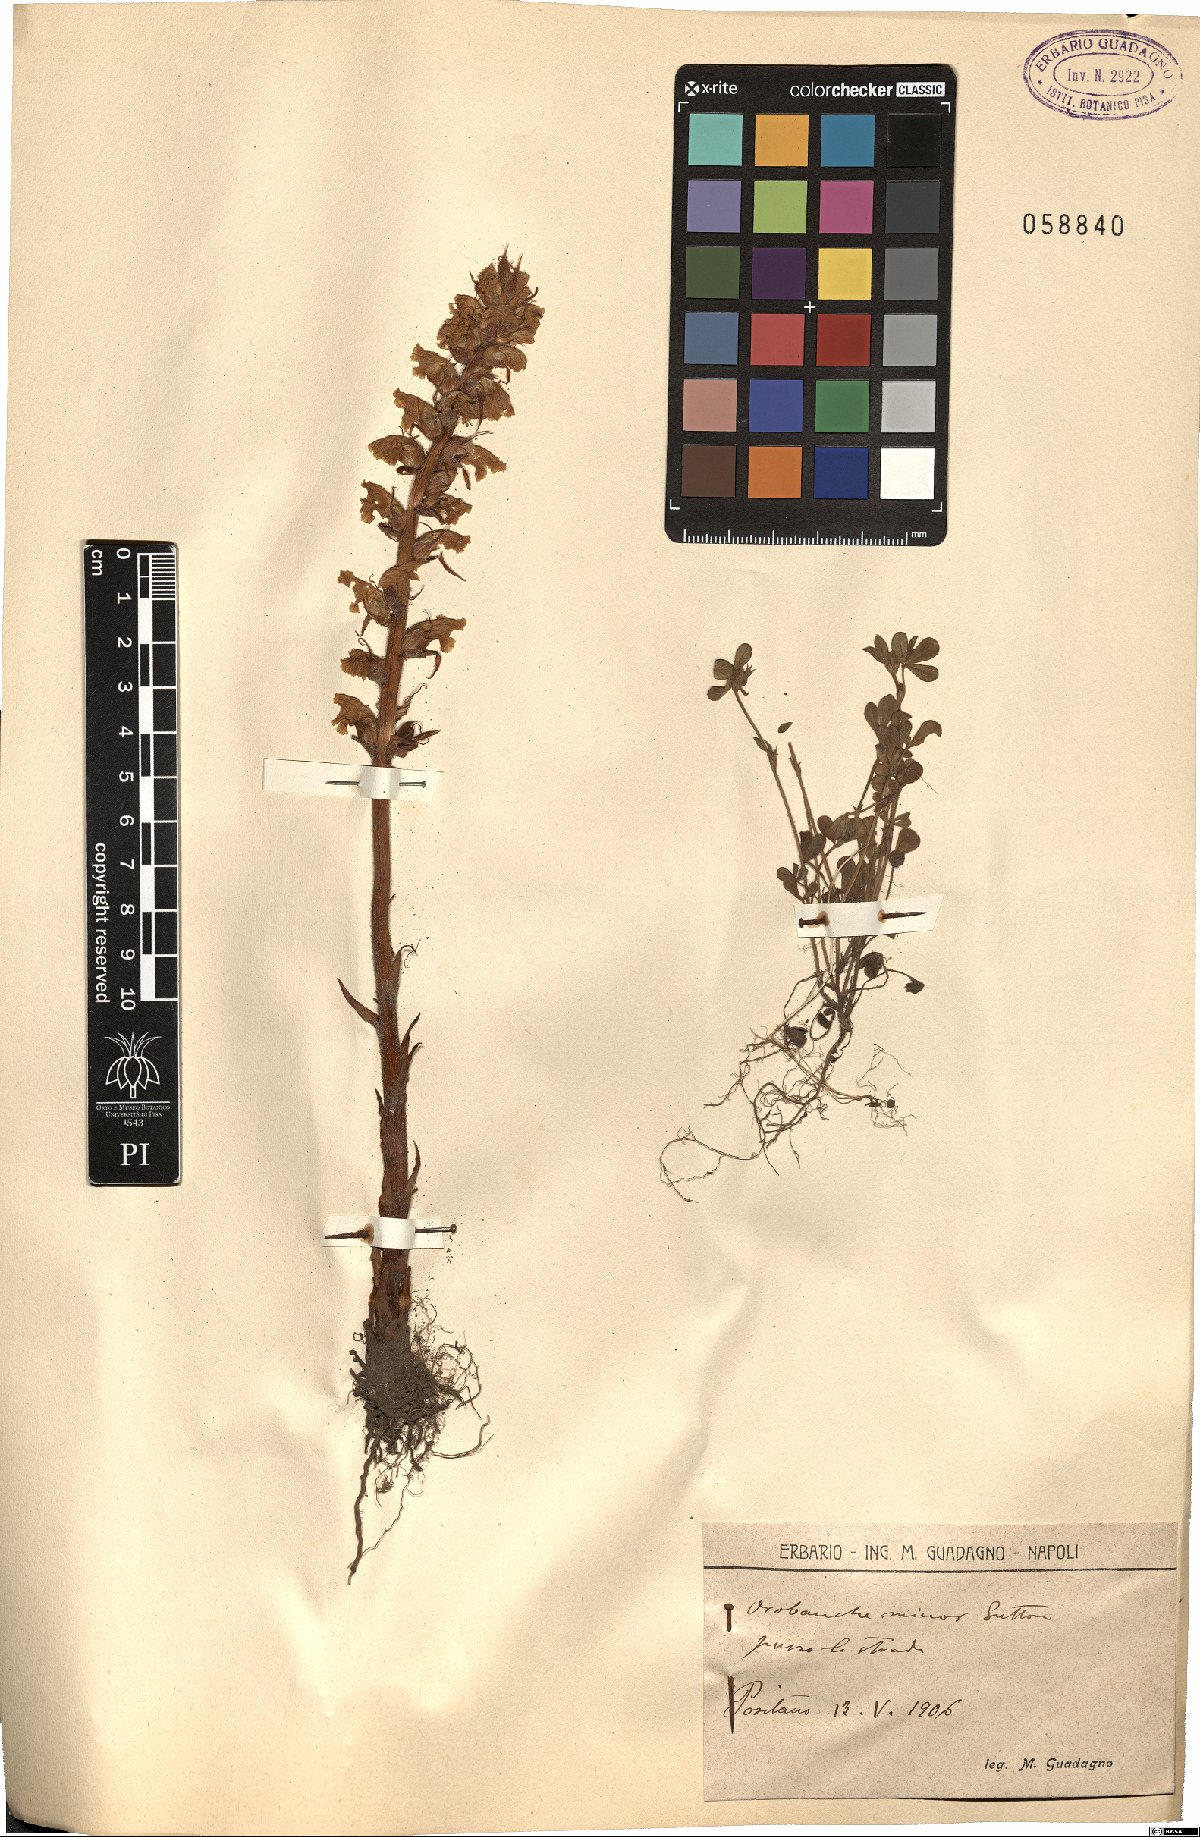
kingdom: Plantae
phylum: Tracheophyta
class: Magnoliopsida
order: Lamiales
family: Orobanchaceae
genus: Orobanche
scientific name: Orobanche minor
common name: Common broomrape
